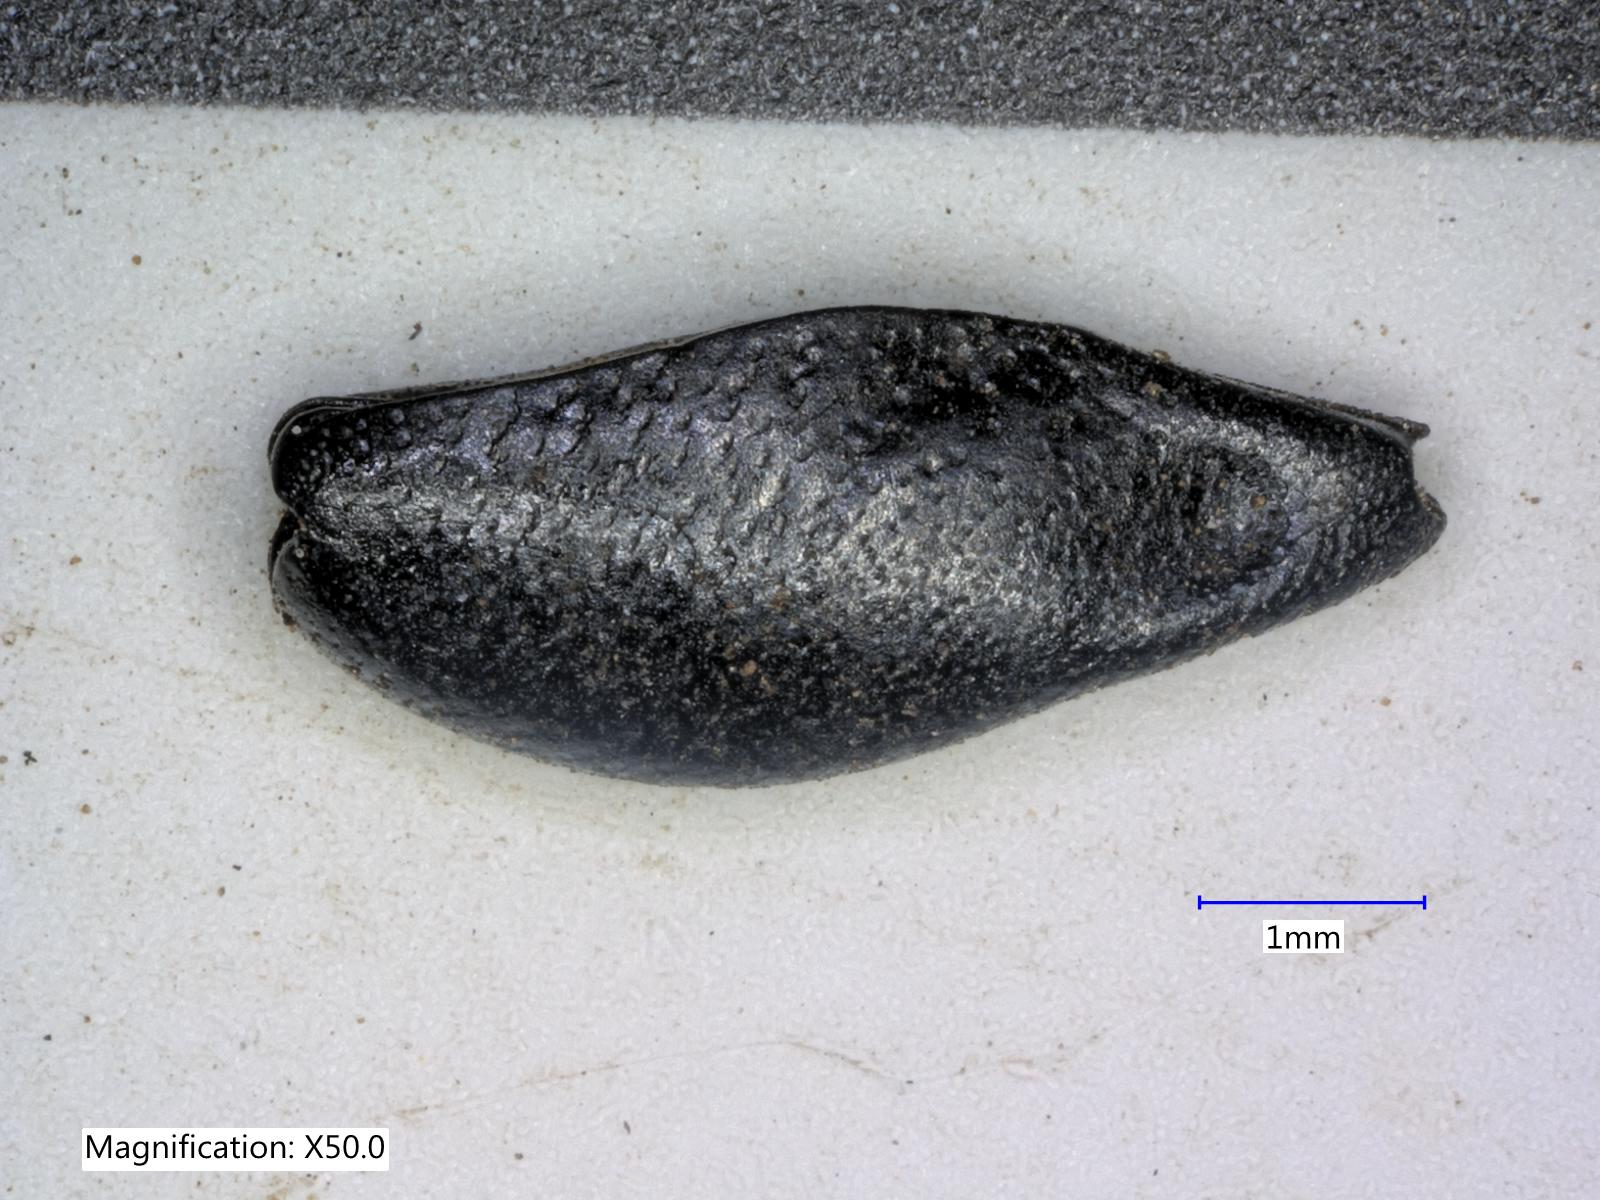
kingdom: Animalia
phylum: Arthropoda
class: Insecta
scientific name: Insecta
